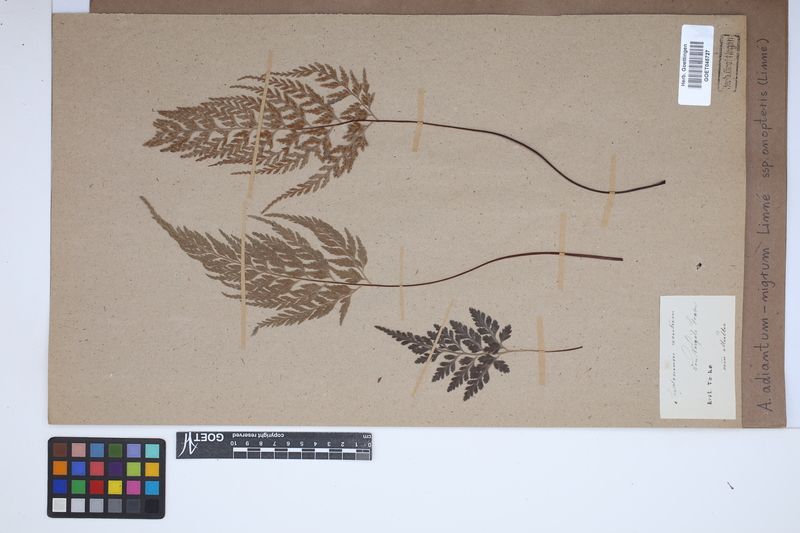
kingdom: Plantae
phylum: Tracheophyta
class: Polypodiopsida
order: Polypodiales
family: Aspleniaceae
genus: Asplenium
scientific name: Asplenium onopteris
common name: Irish spleenwort
